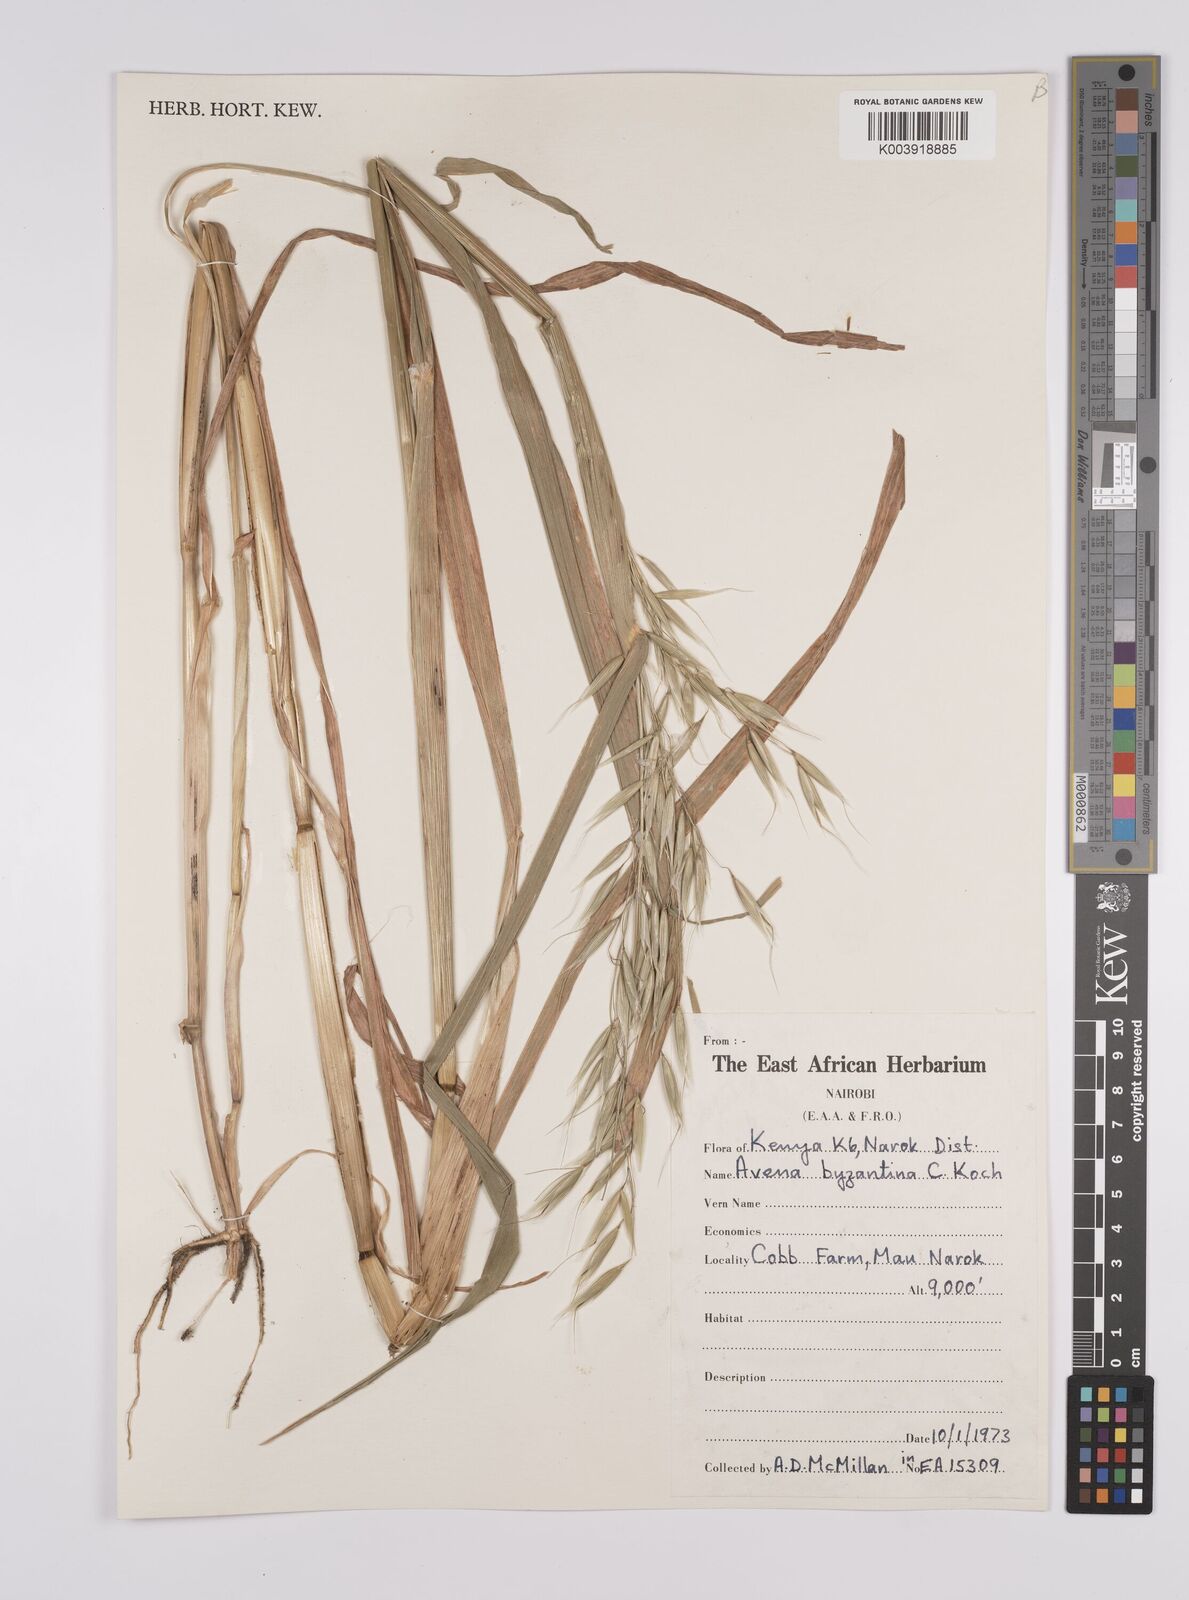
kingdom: Plantae
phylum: Tracheophyta
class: Liliopsida
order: Poales
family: Poaceae
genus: Avena
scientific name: Avena byzantina
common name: Algerian oat
